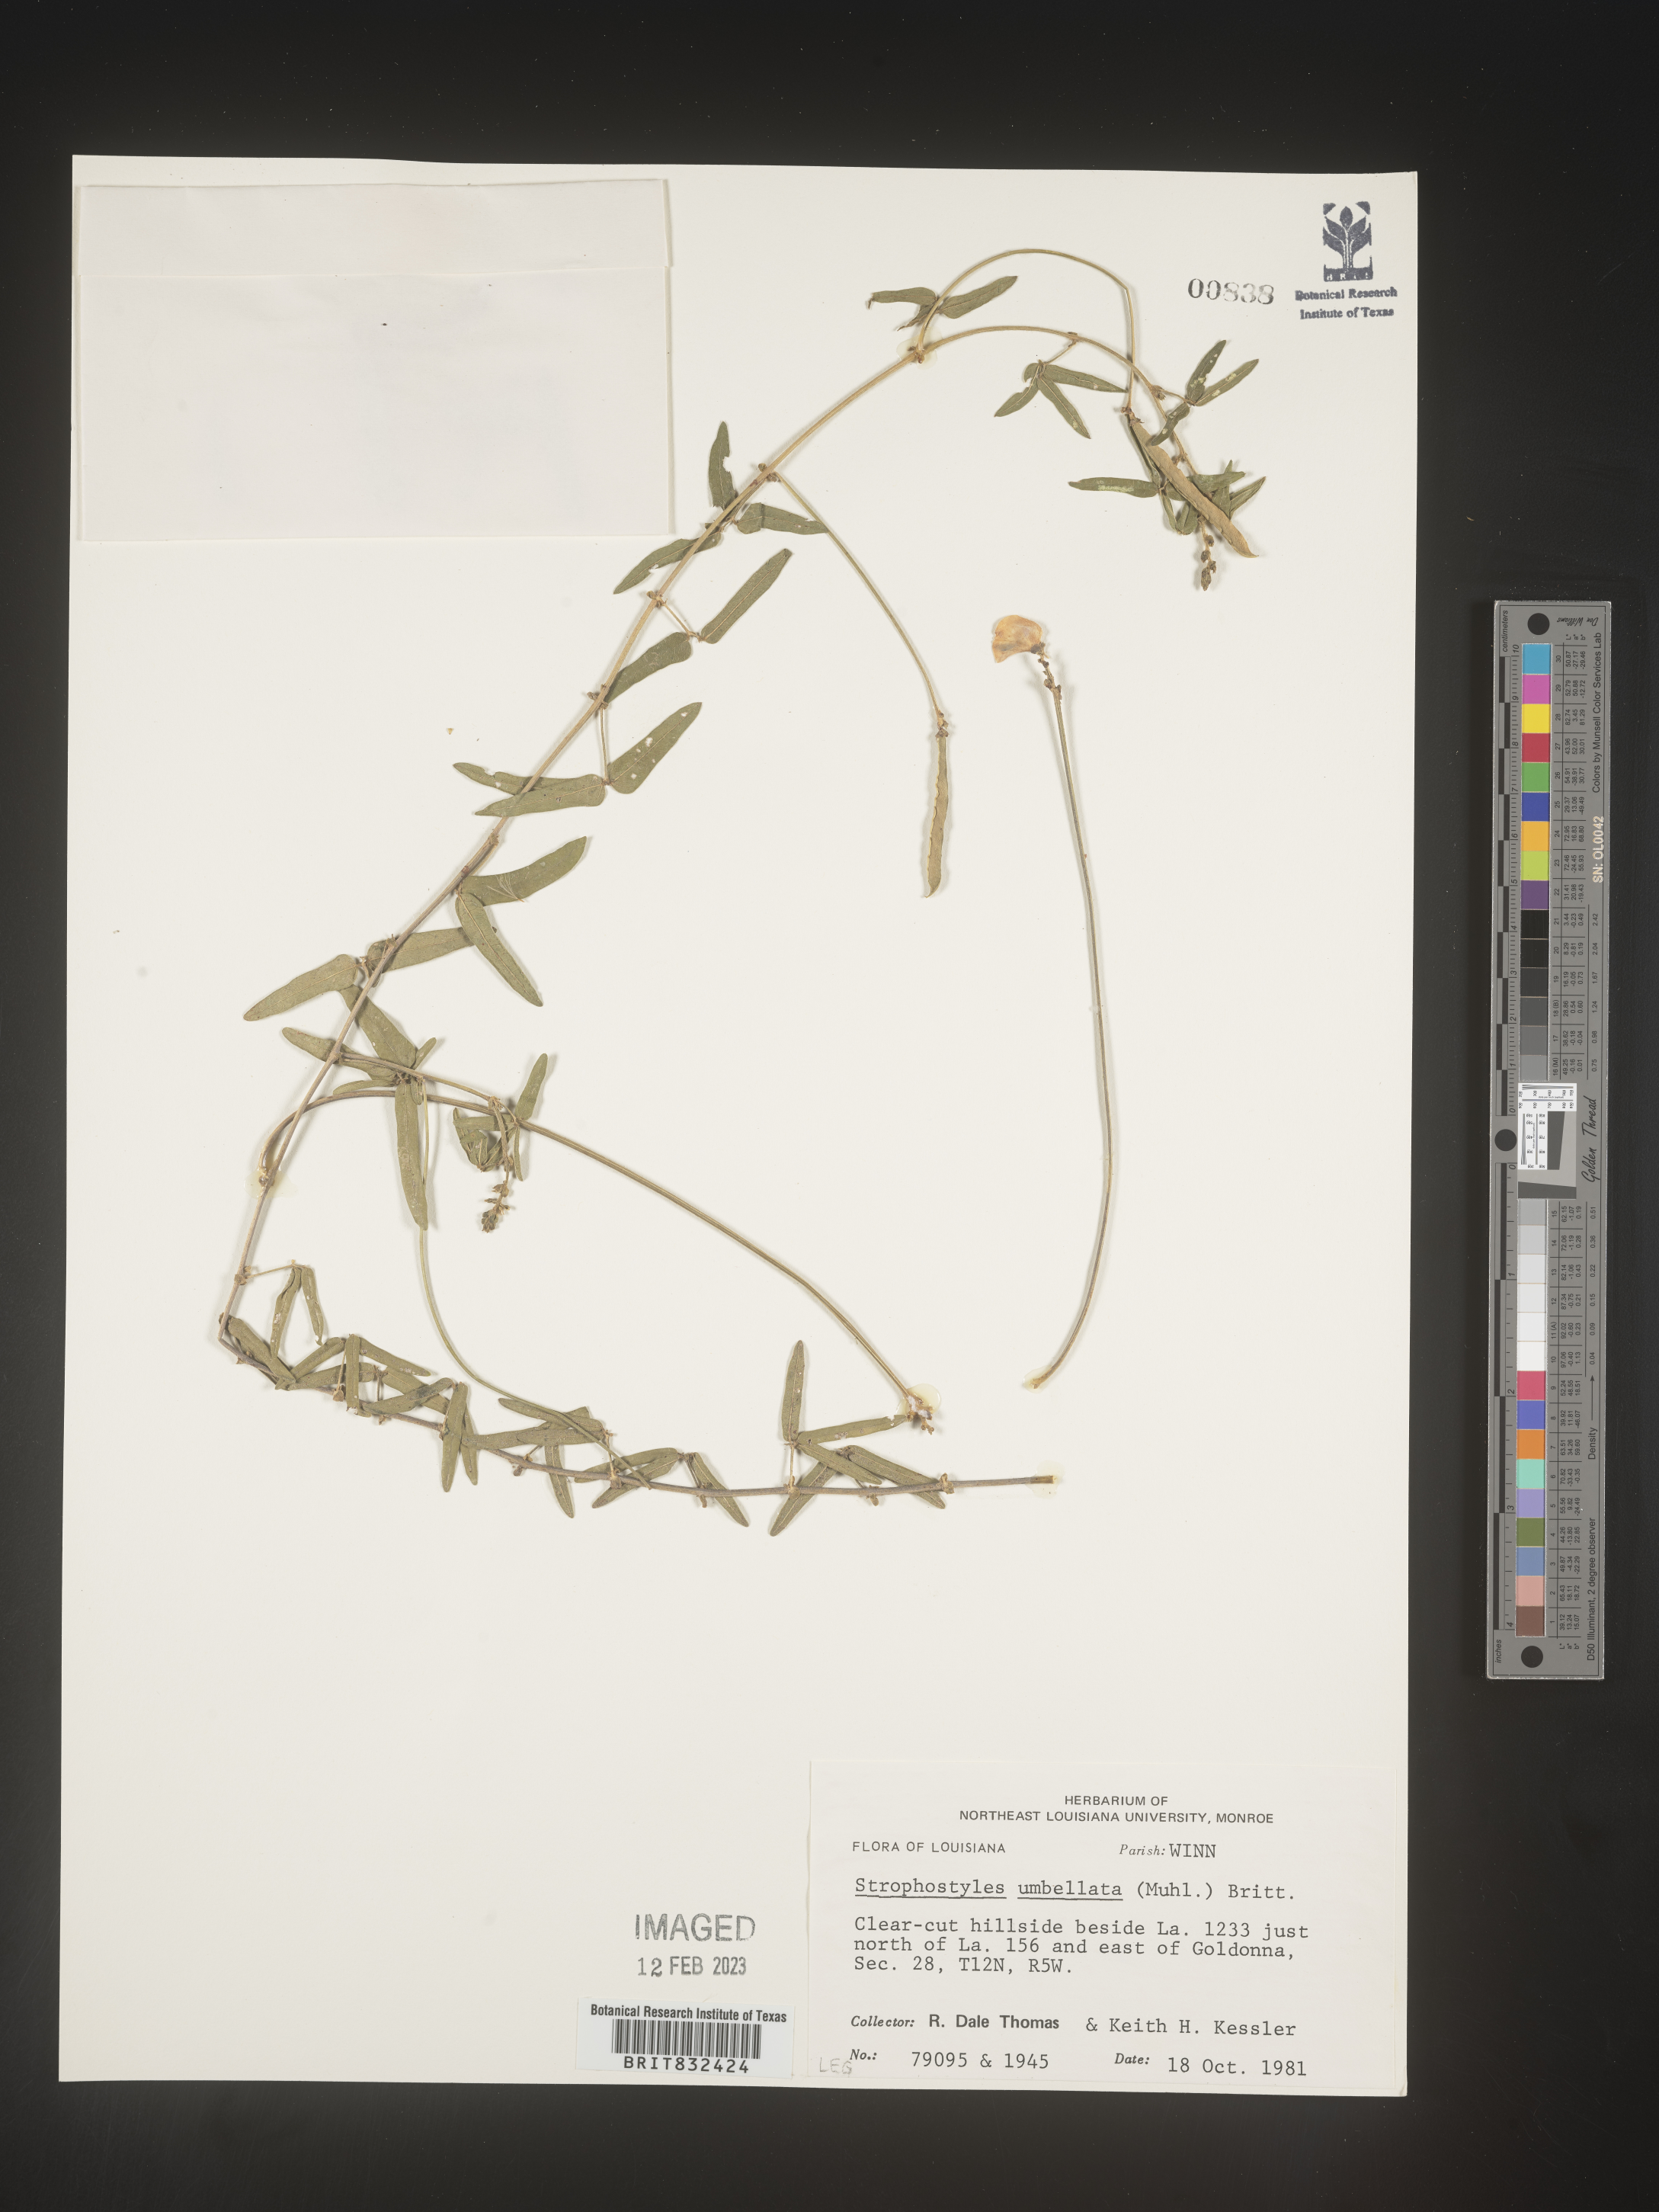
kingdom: Plantae
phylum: Tracheophyta
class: Magnoliopsida
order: Fabales
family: Fabaceae
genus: Strophostyles
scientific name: Strophostyles umbellata
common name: Perennial wild bean
